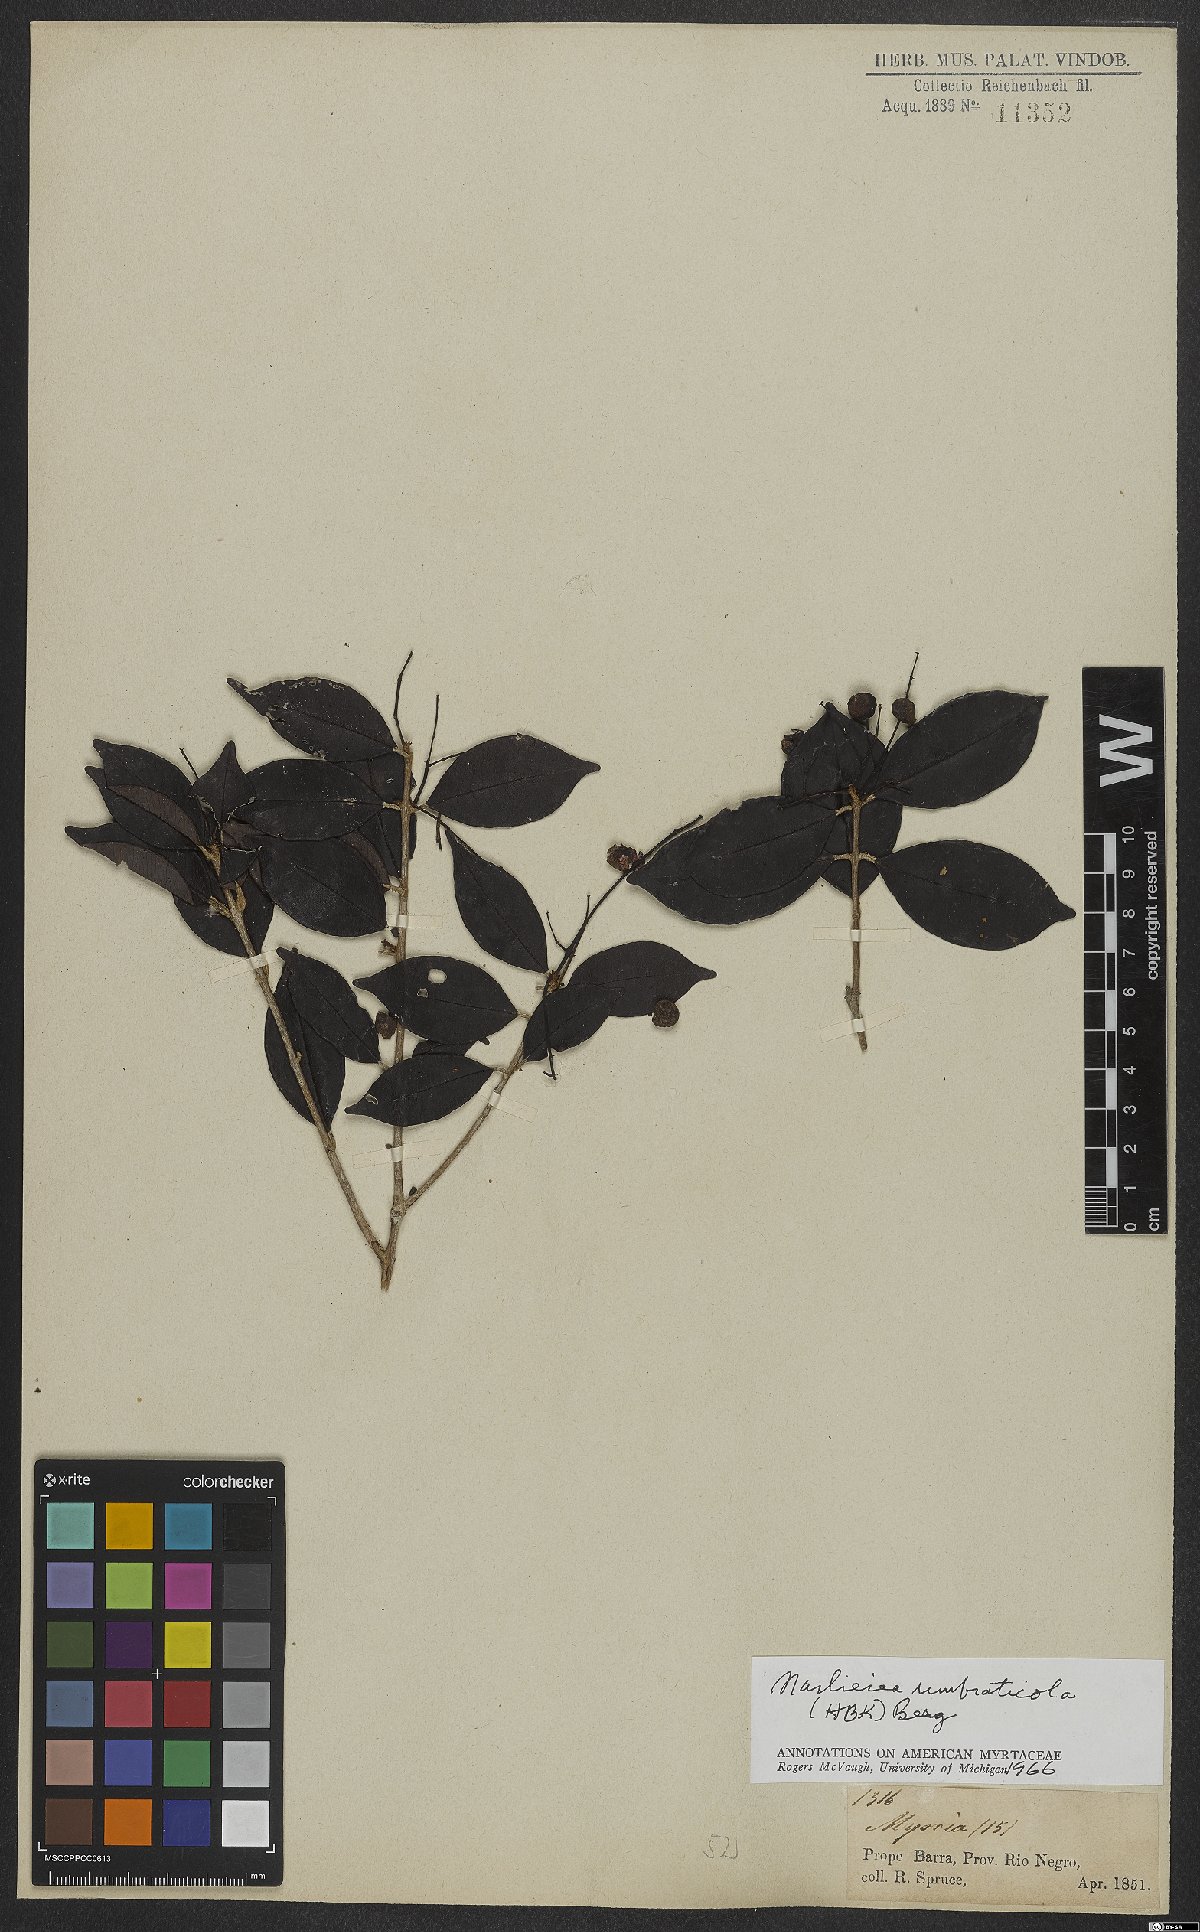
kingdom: Plantae
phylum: Tracheophyta
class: Magnoliopsida
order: Myrtales
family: Myrtaceae
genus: Myrcia
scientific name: Myrcia umbraticola
